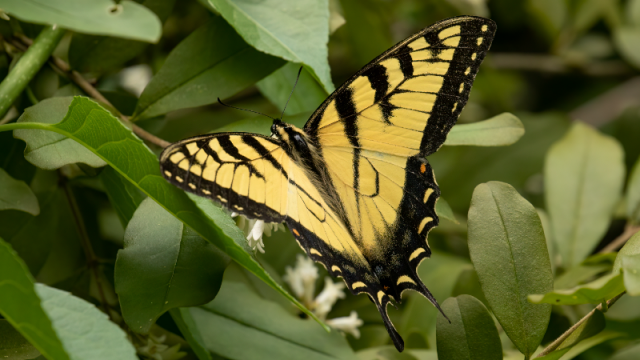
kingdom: Animalia
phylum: Arthropoda
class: Insecta
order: Lepidoptera
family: Papilionidae
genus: Pterourus
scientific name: Pterourus canadensis
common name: Canadian Tiger Swallowtail
